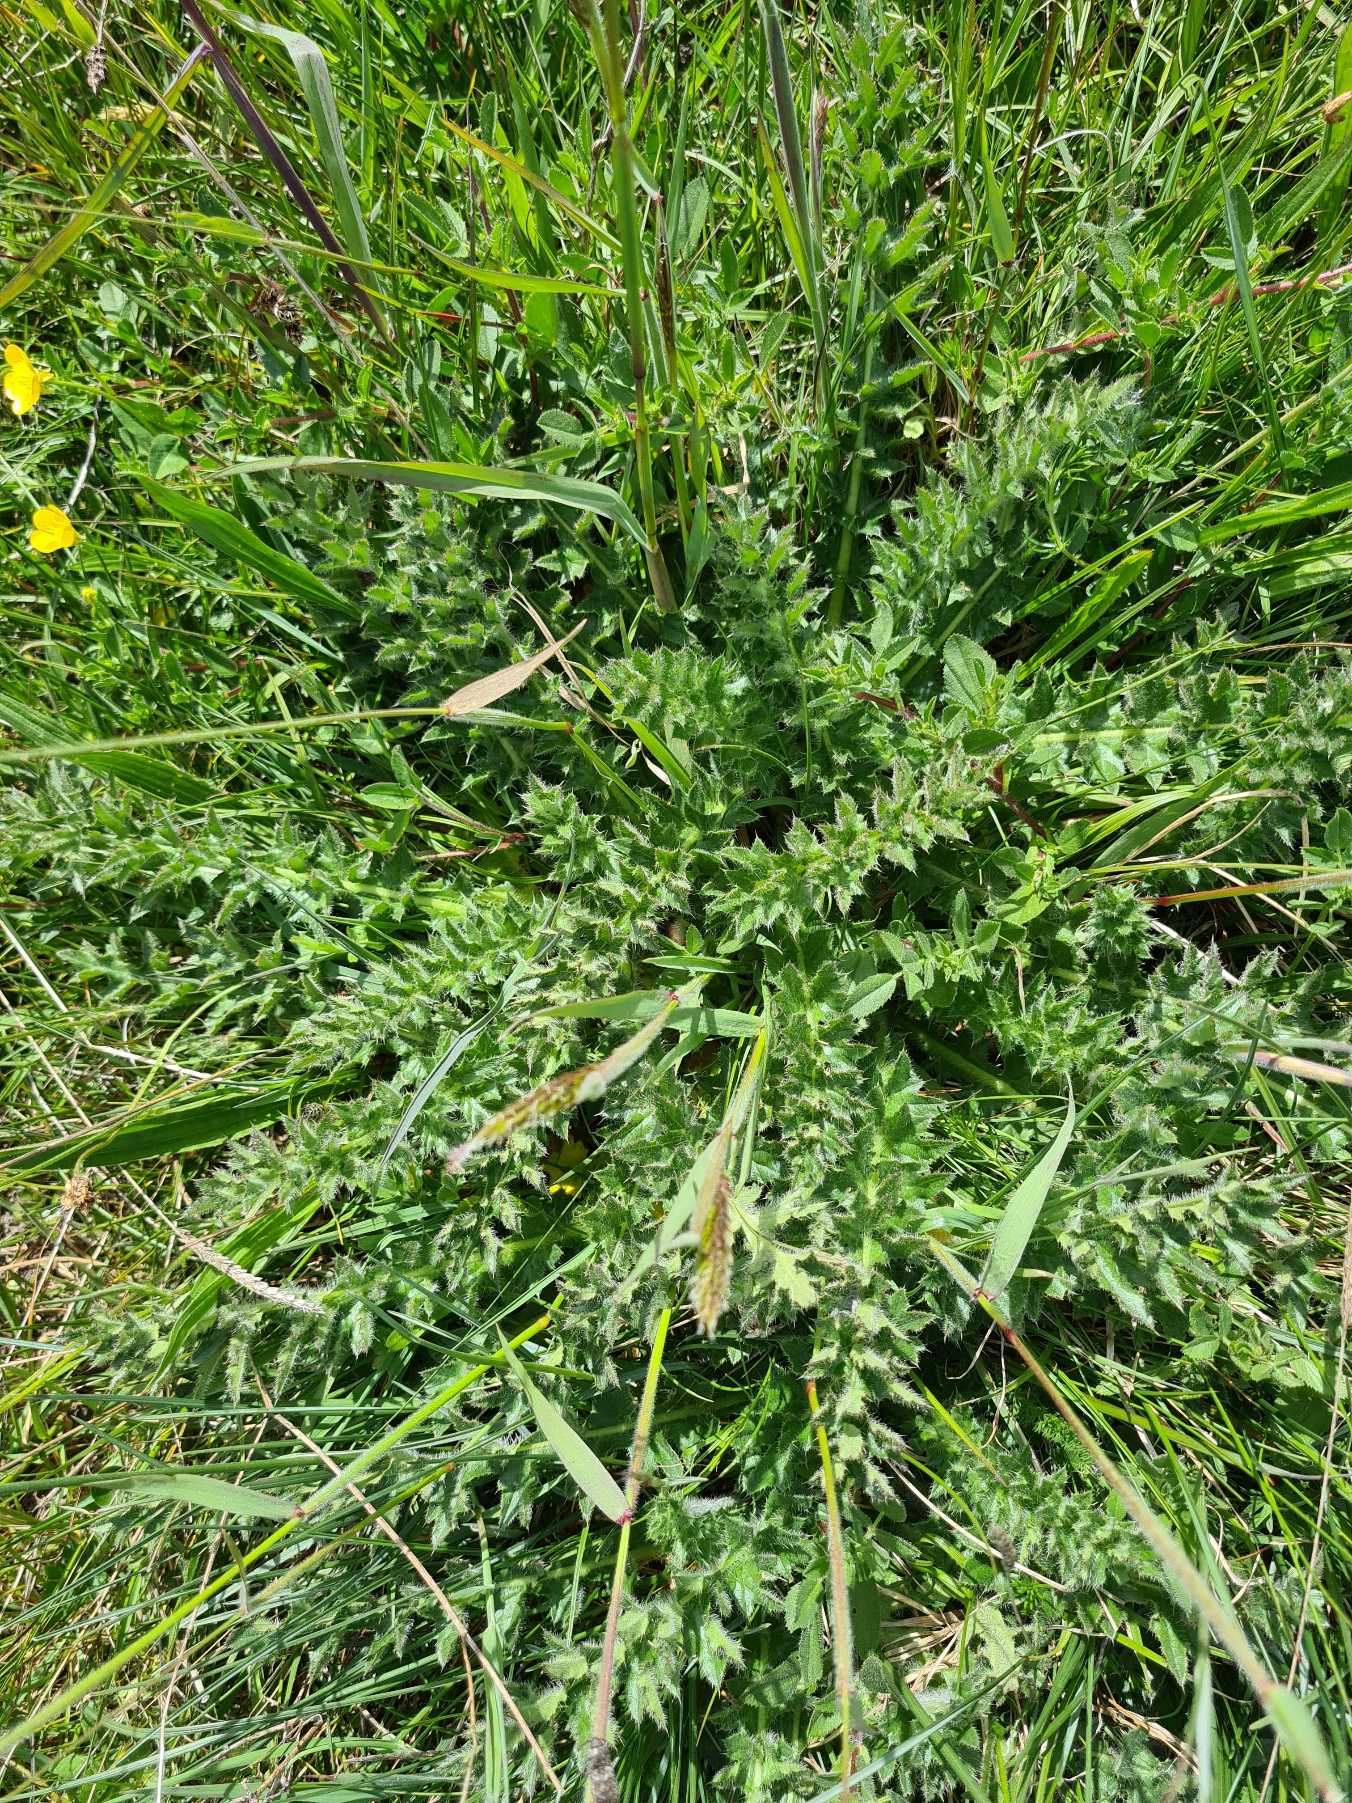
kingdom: Plantae
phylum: Tracheophyta
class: Magnoliopsida
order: Asterales
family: Asteraceae
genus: Cirsium
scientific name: Cirsium acaule
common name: Lav tidsel
